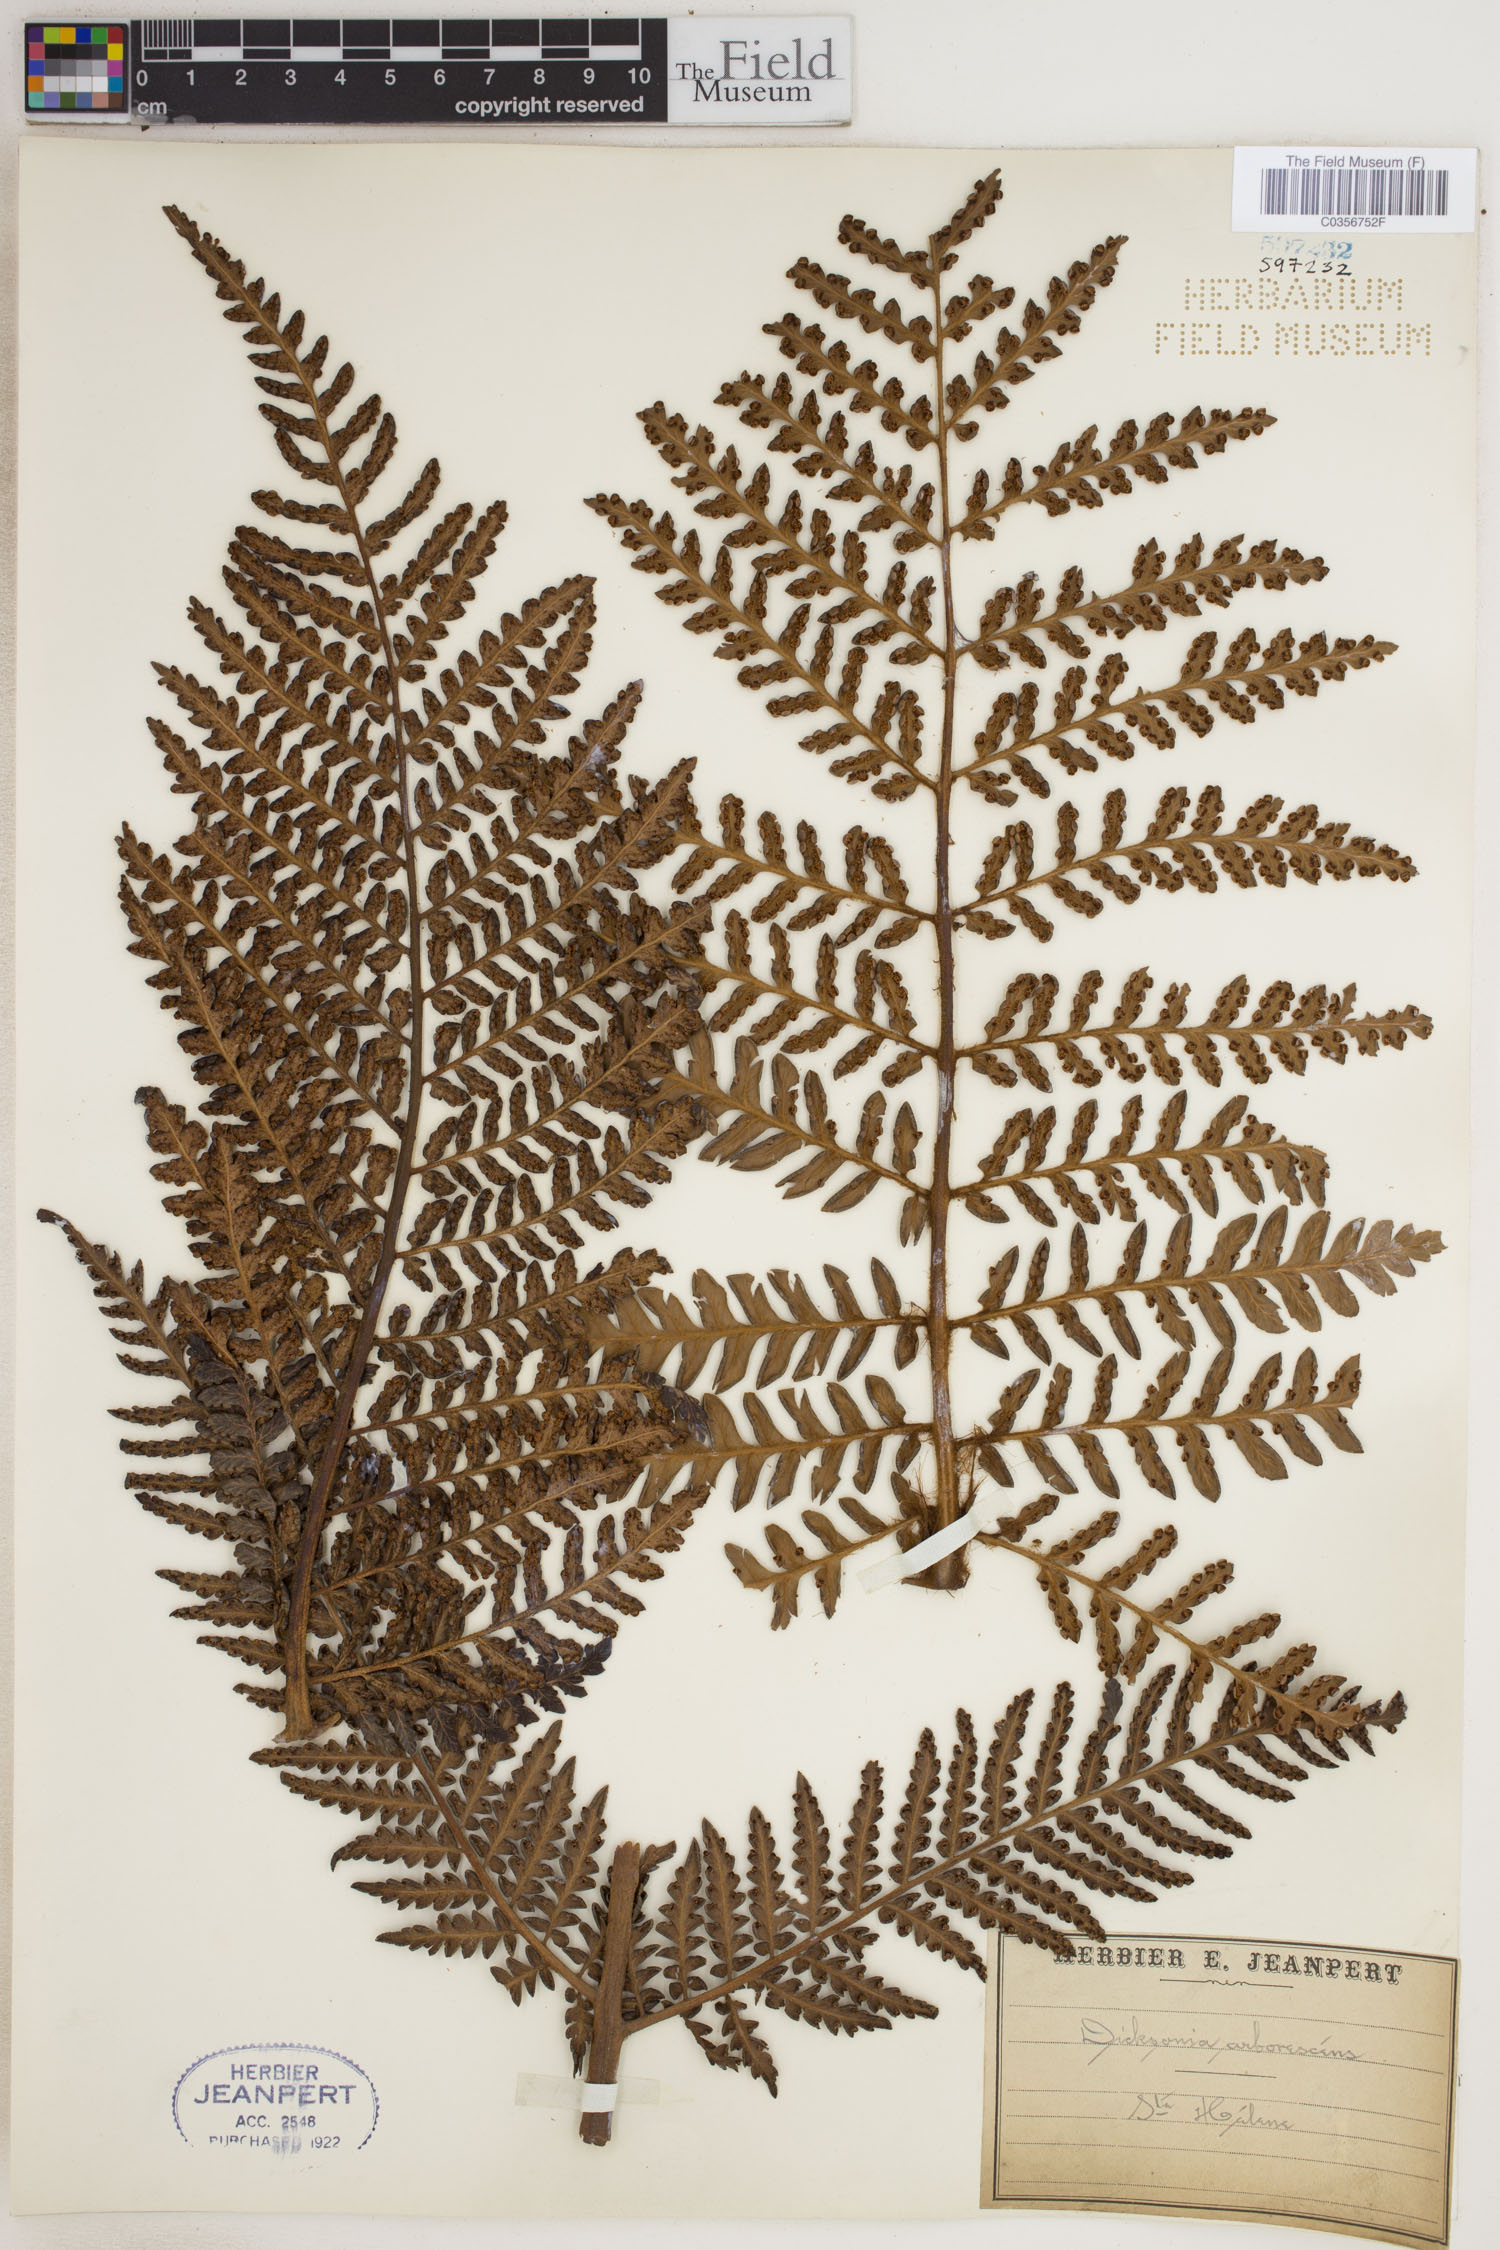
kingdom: Plantae
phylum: Tracheophyta
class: Polypodiopsida
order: Cyatheales
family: Dicksoniaceae
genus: Dicksonia
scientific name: Dicksonia arborescens
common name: St helena tree fern
